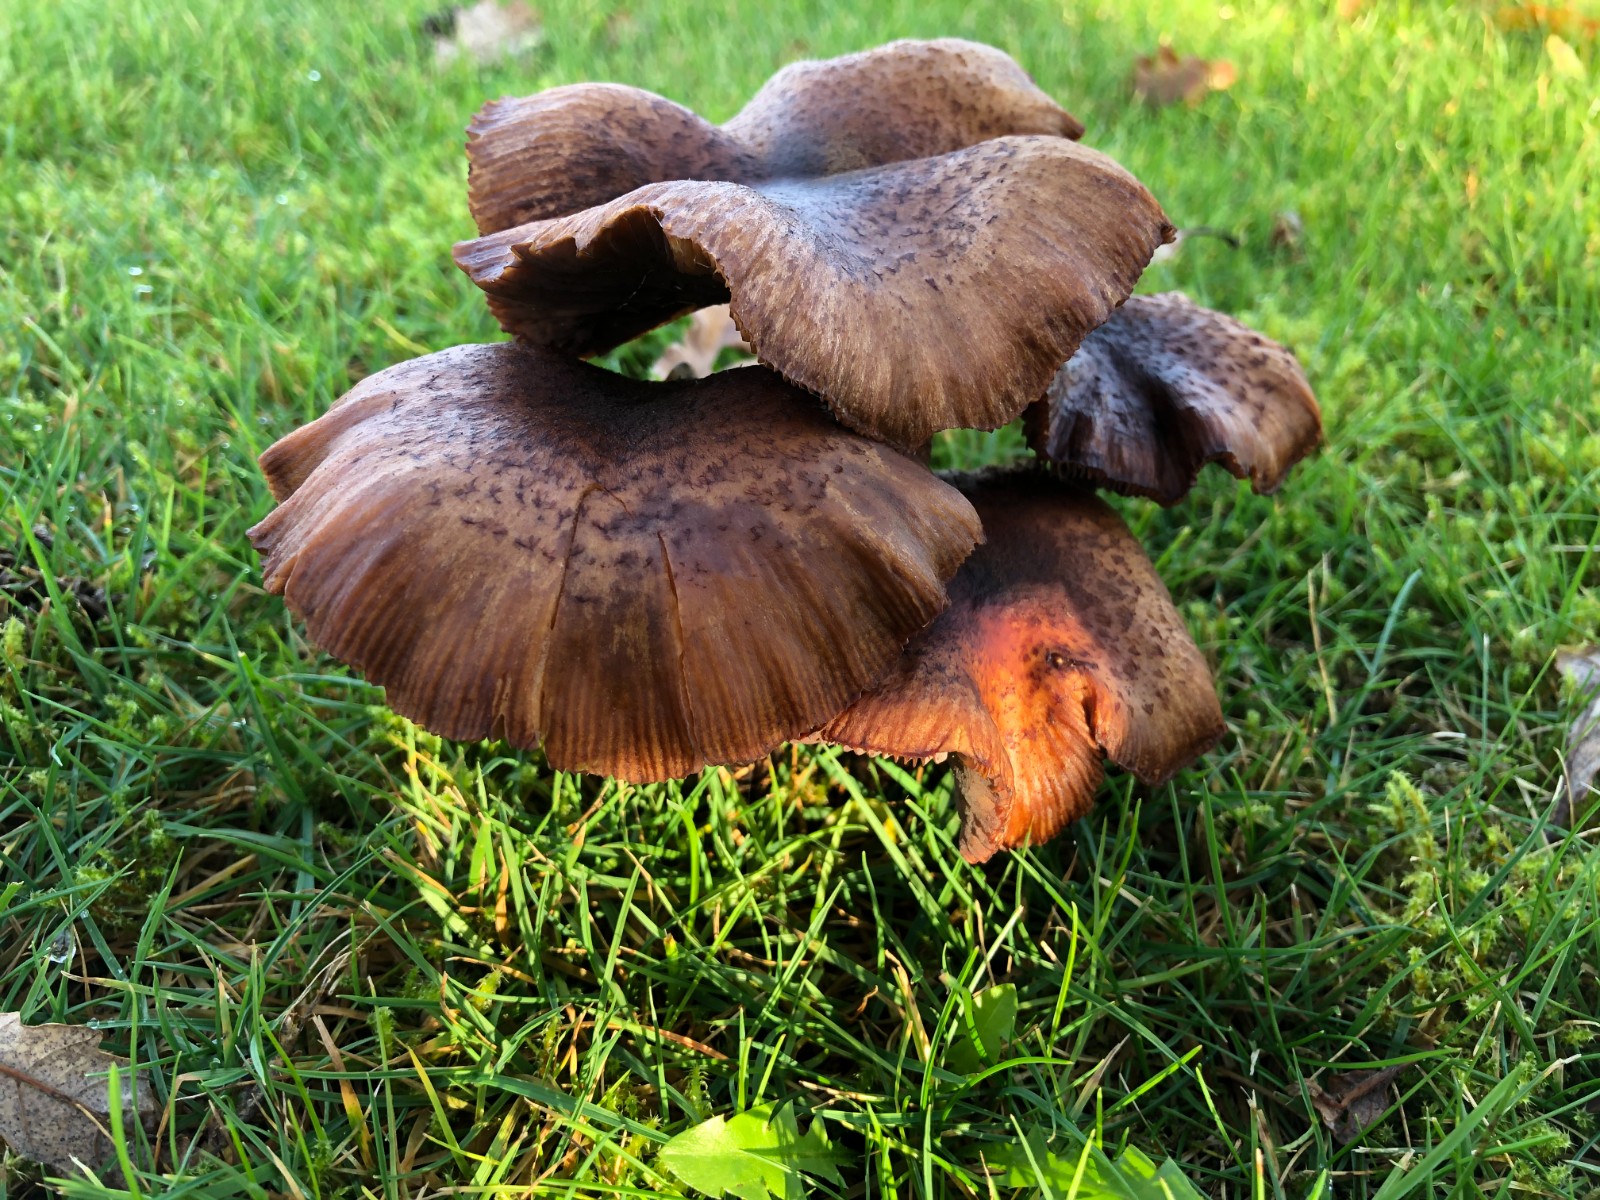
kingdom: Fungi
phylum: Basidiomycota
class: Agaricomycetes
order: Agaricales
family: Physalacriaceae
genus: Armillaria
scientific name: Armillaria
